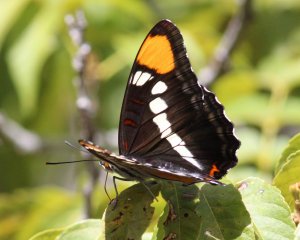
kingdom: Animalia
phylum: Arthropoda
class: Insecta
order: Lepidoptera
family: Nymphalidae
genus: Limenitis
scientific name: Limenitis bredowii
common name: Arizona Sister
